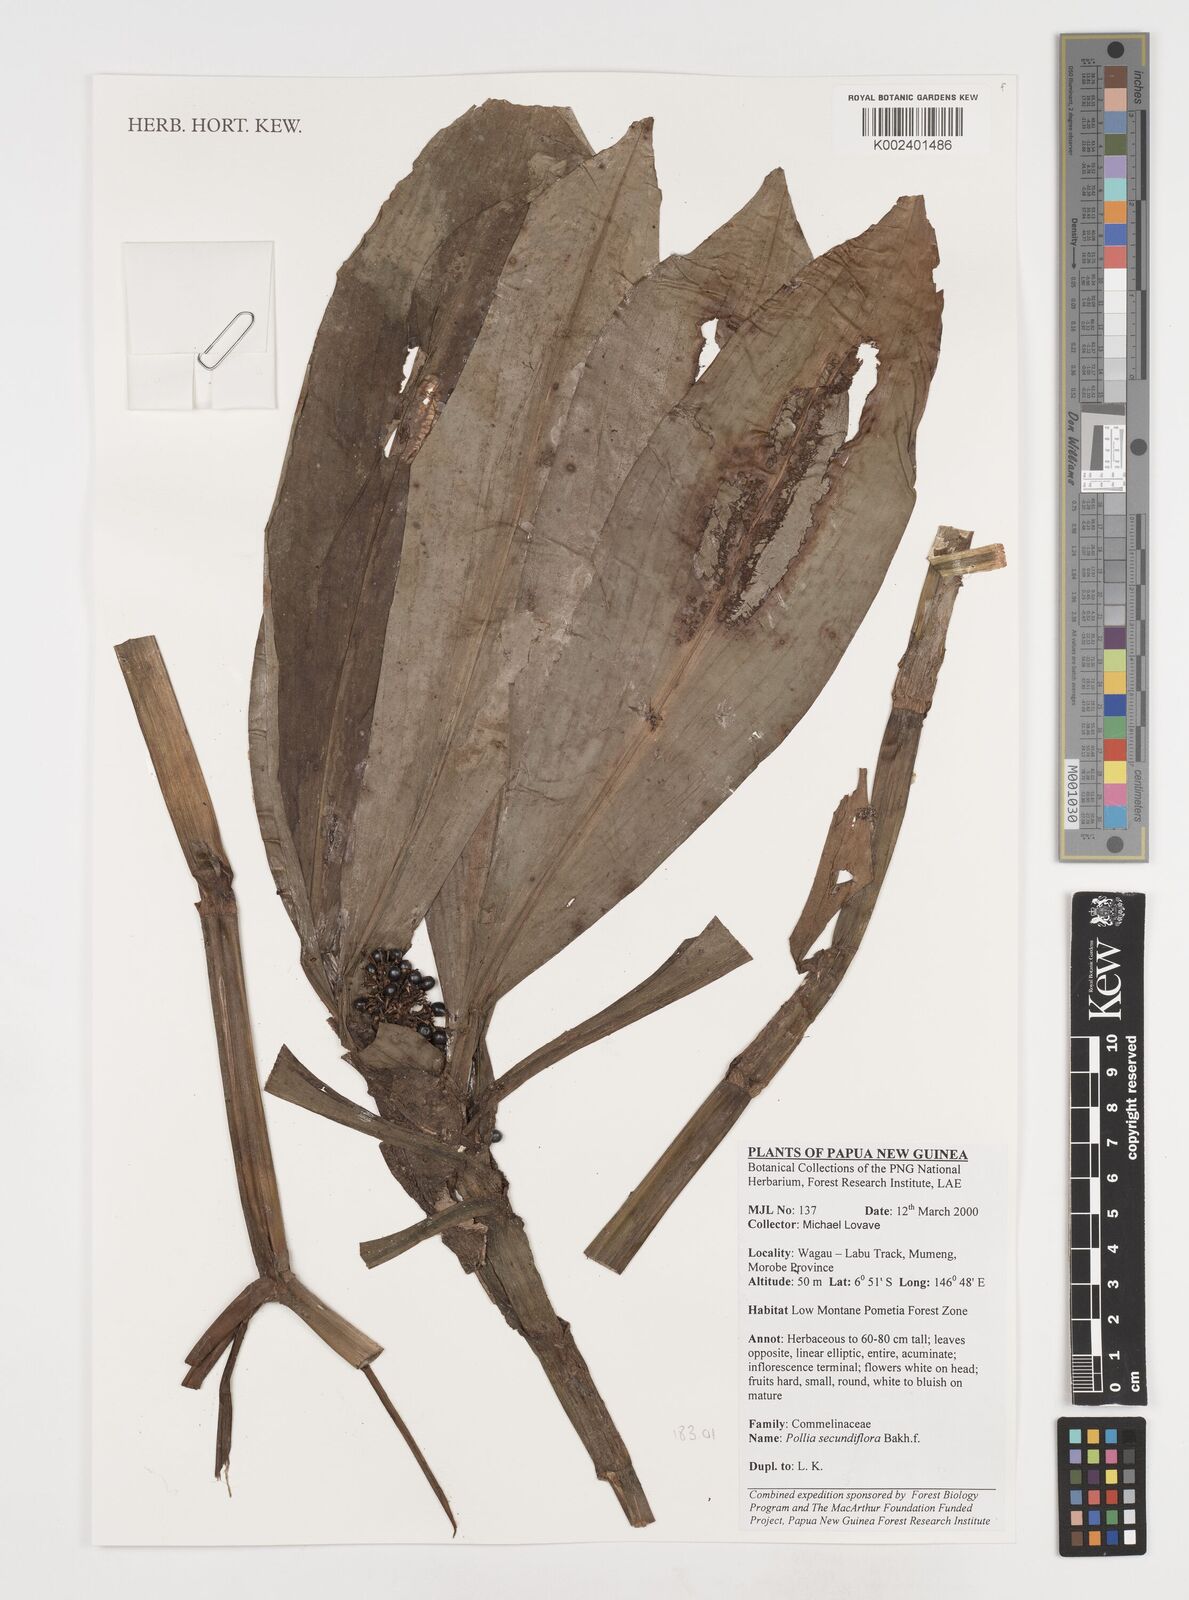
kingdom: Plantae
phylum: Tracheophyta
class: Liliopsida
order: Commelinales
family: Commelinaceae
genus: Pollia
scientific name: Pollia secundiflora
